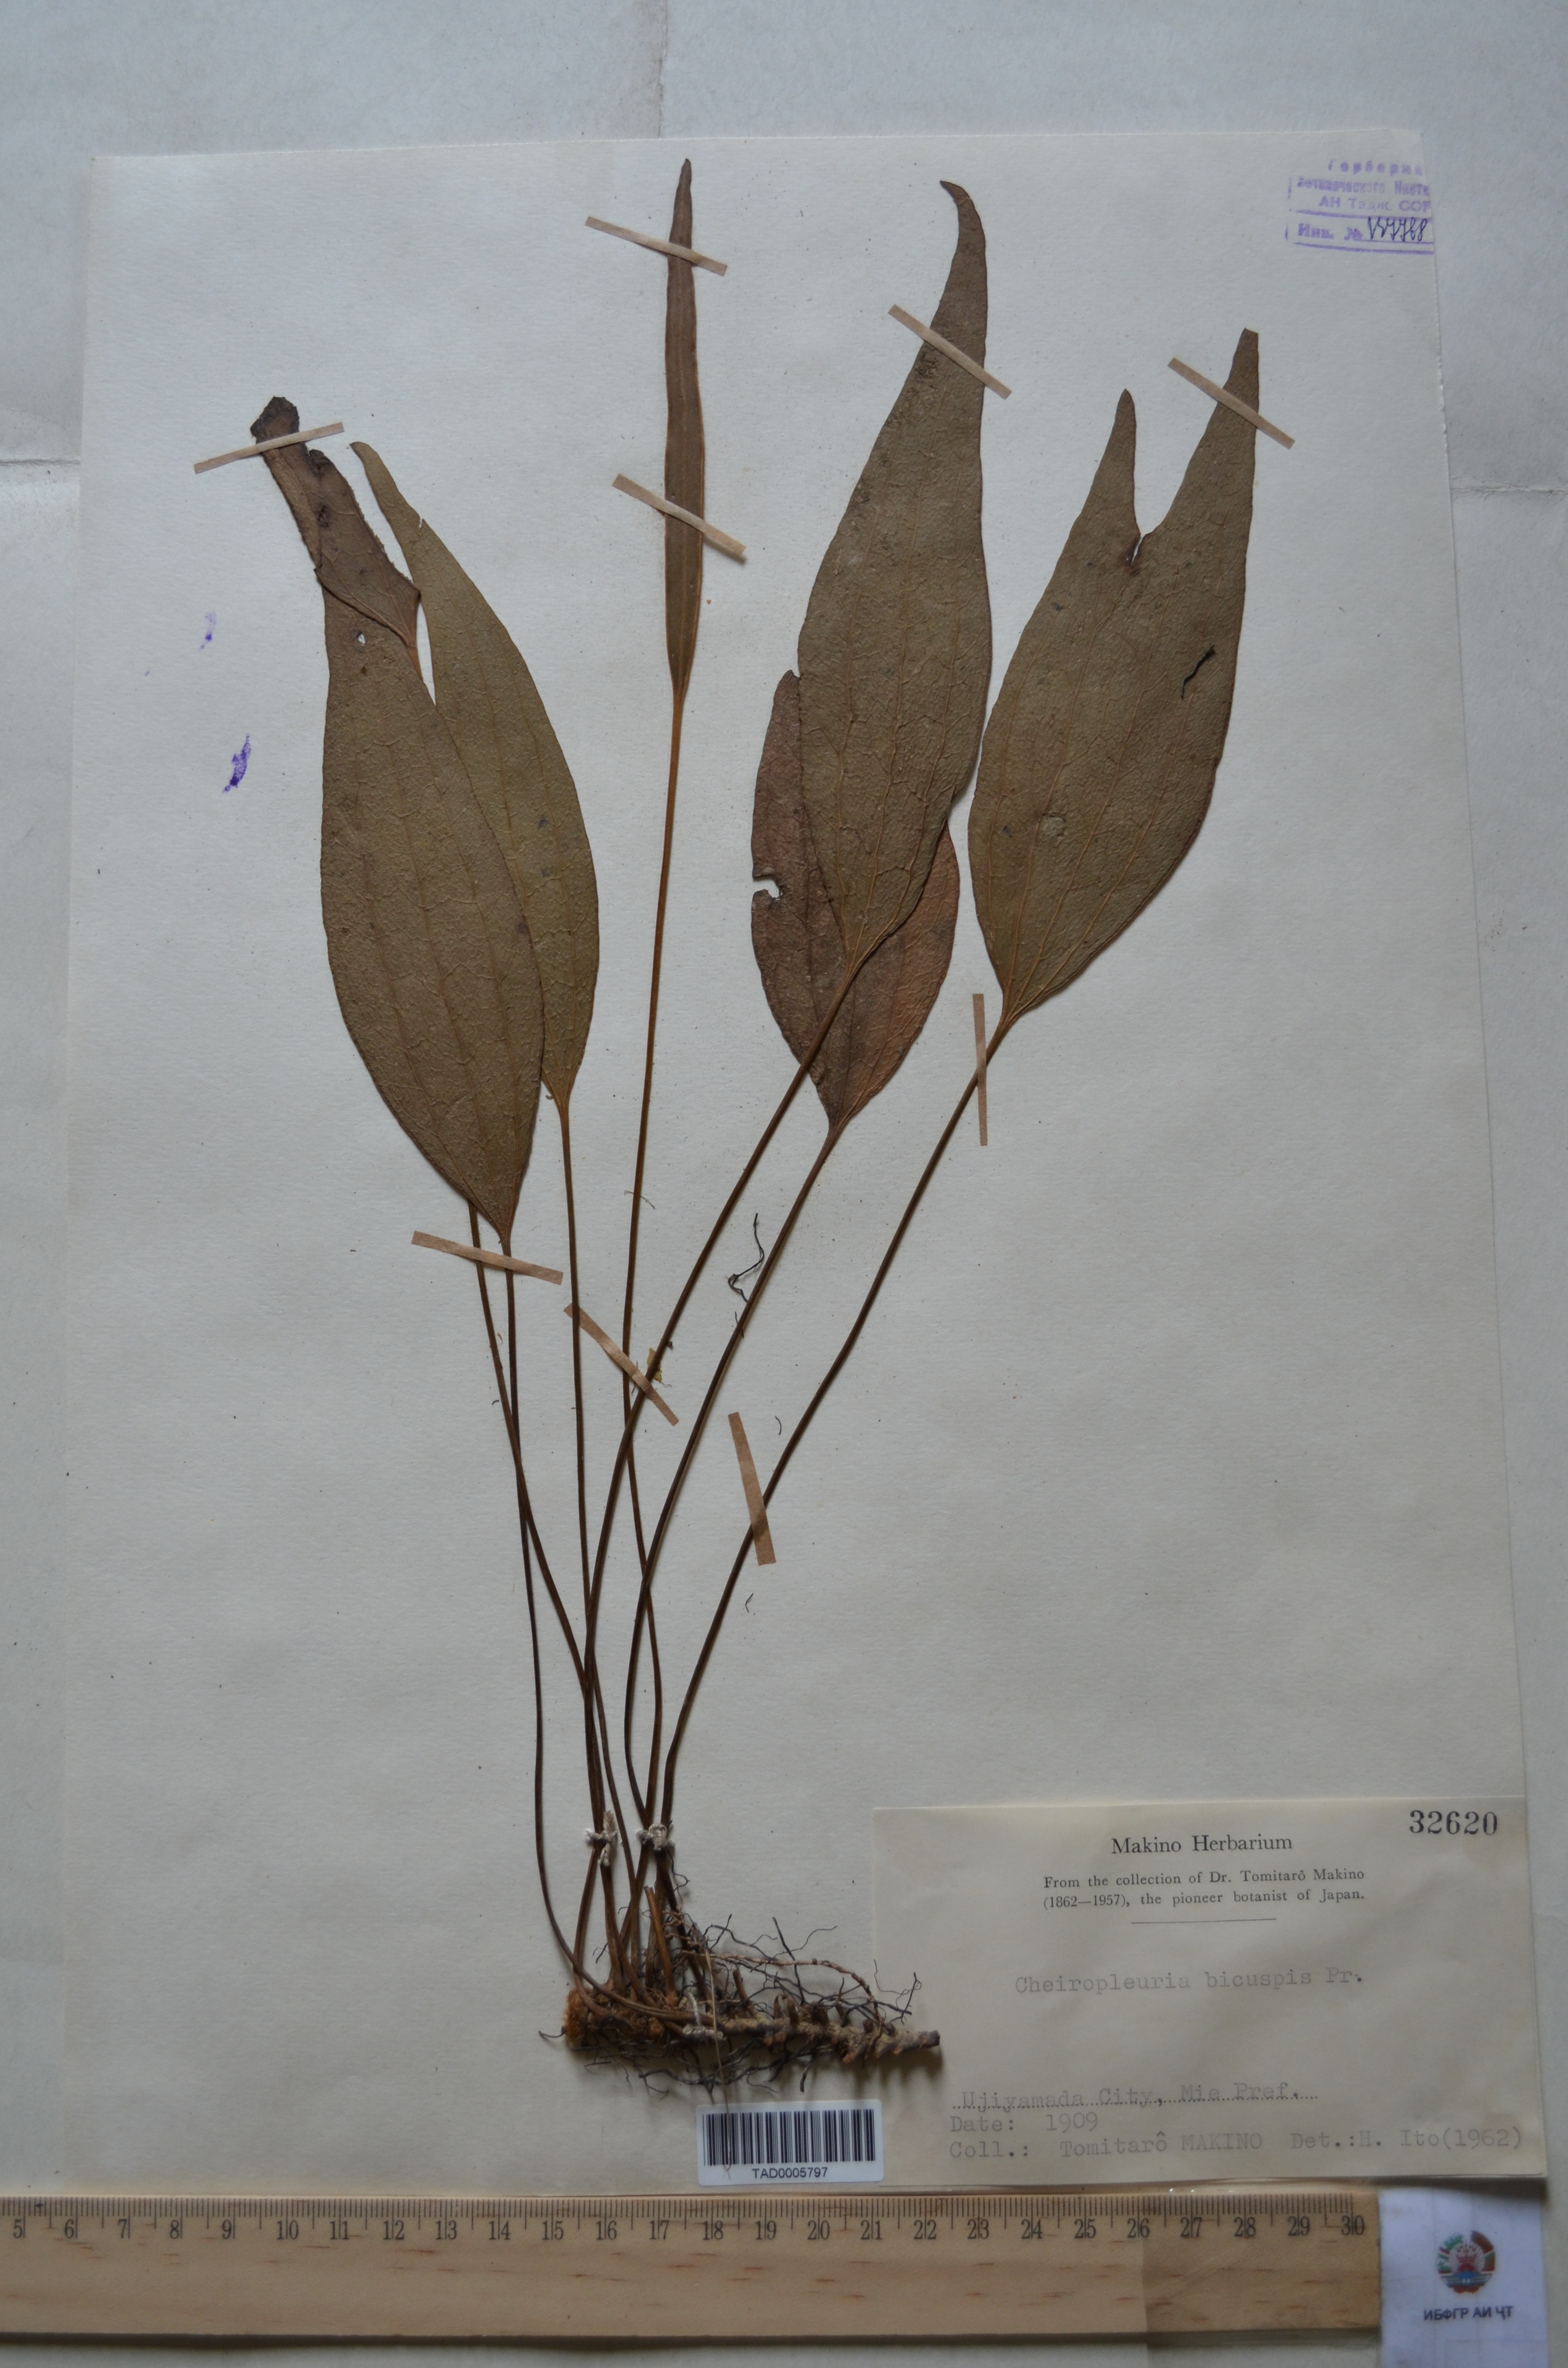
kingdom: Plantae
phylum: Tracheophyta
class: Polypodiopsida
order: Gleicheniales
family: Dipteridaceae
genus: Cheiropleuria
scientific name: Cheiropleuria bicuspis
